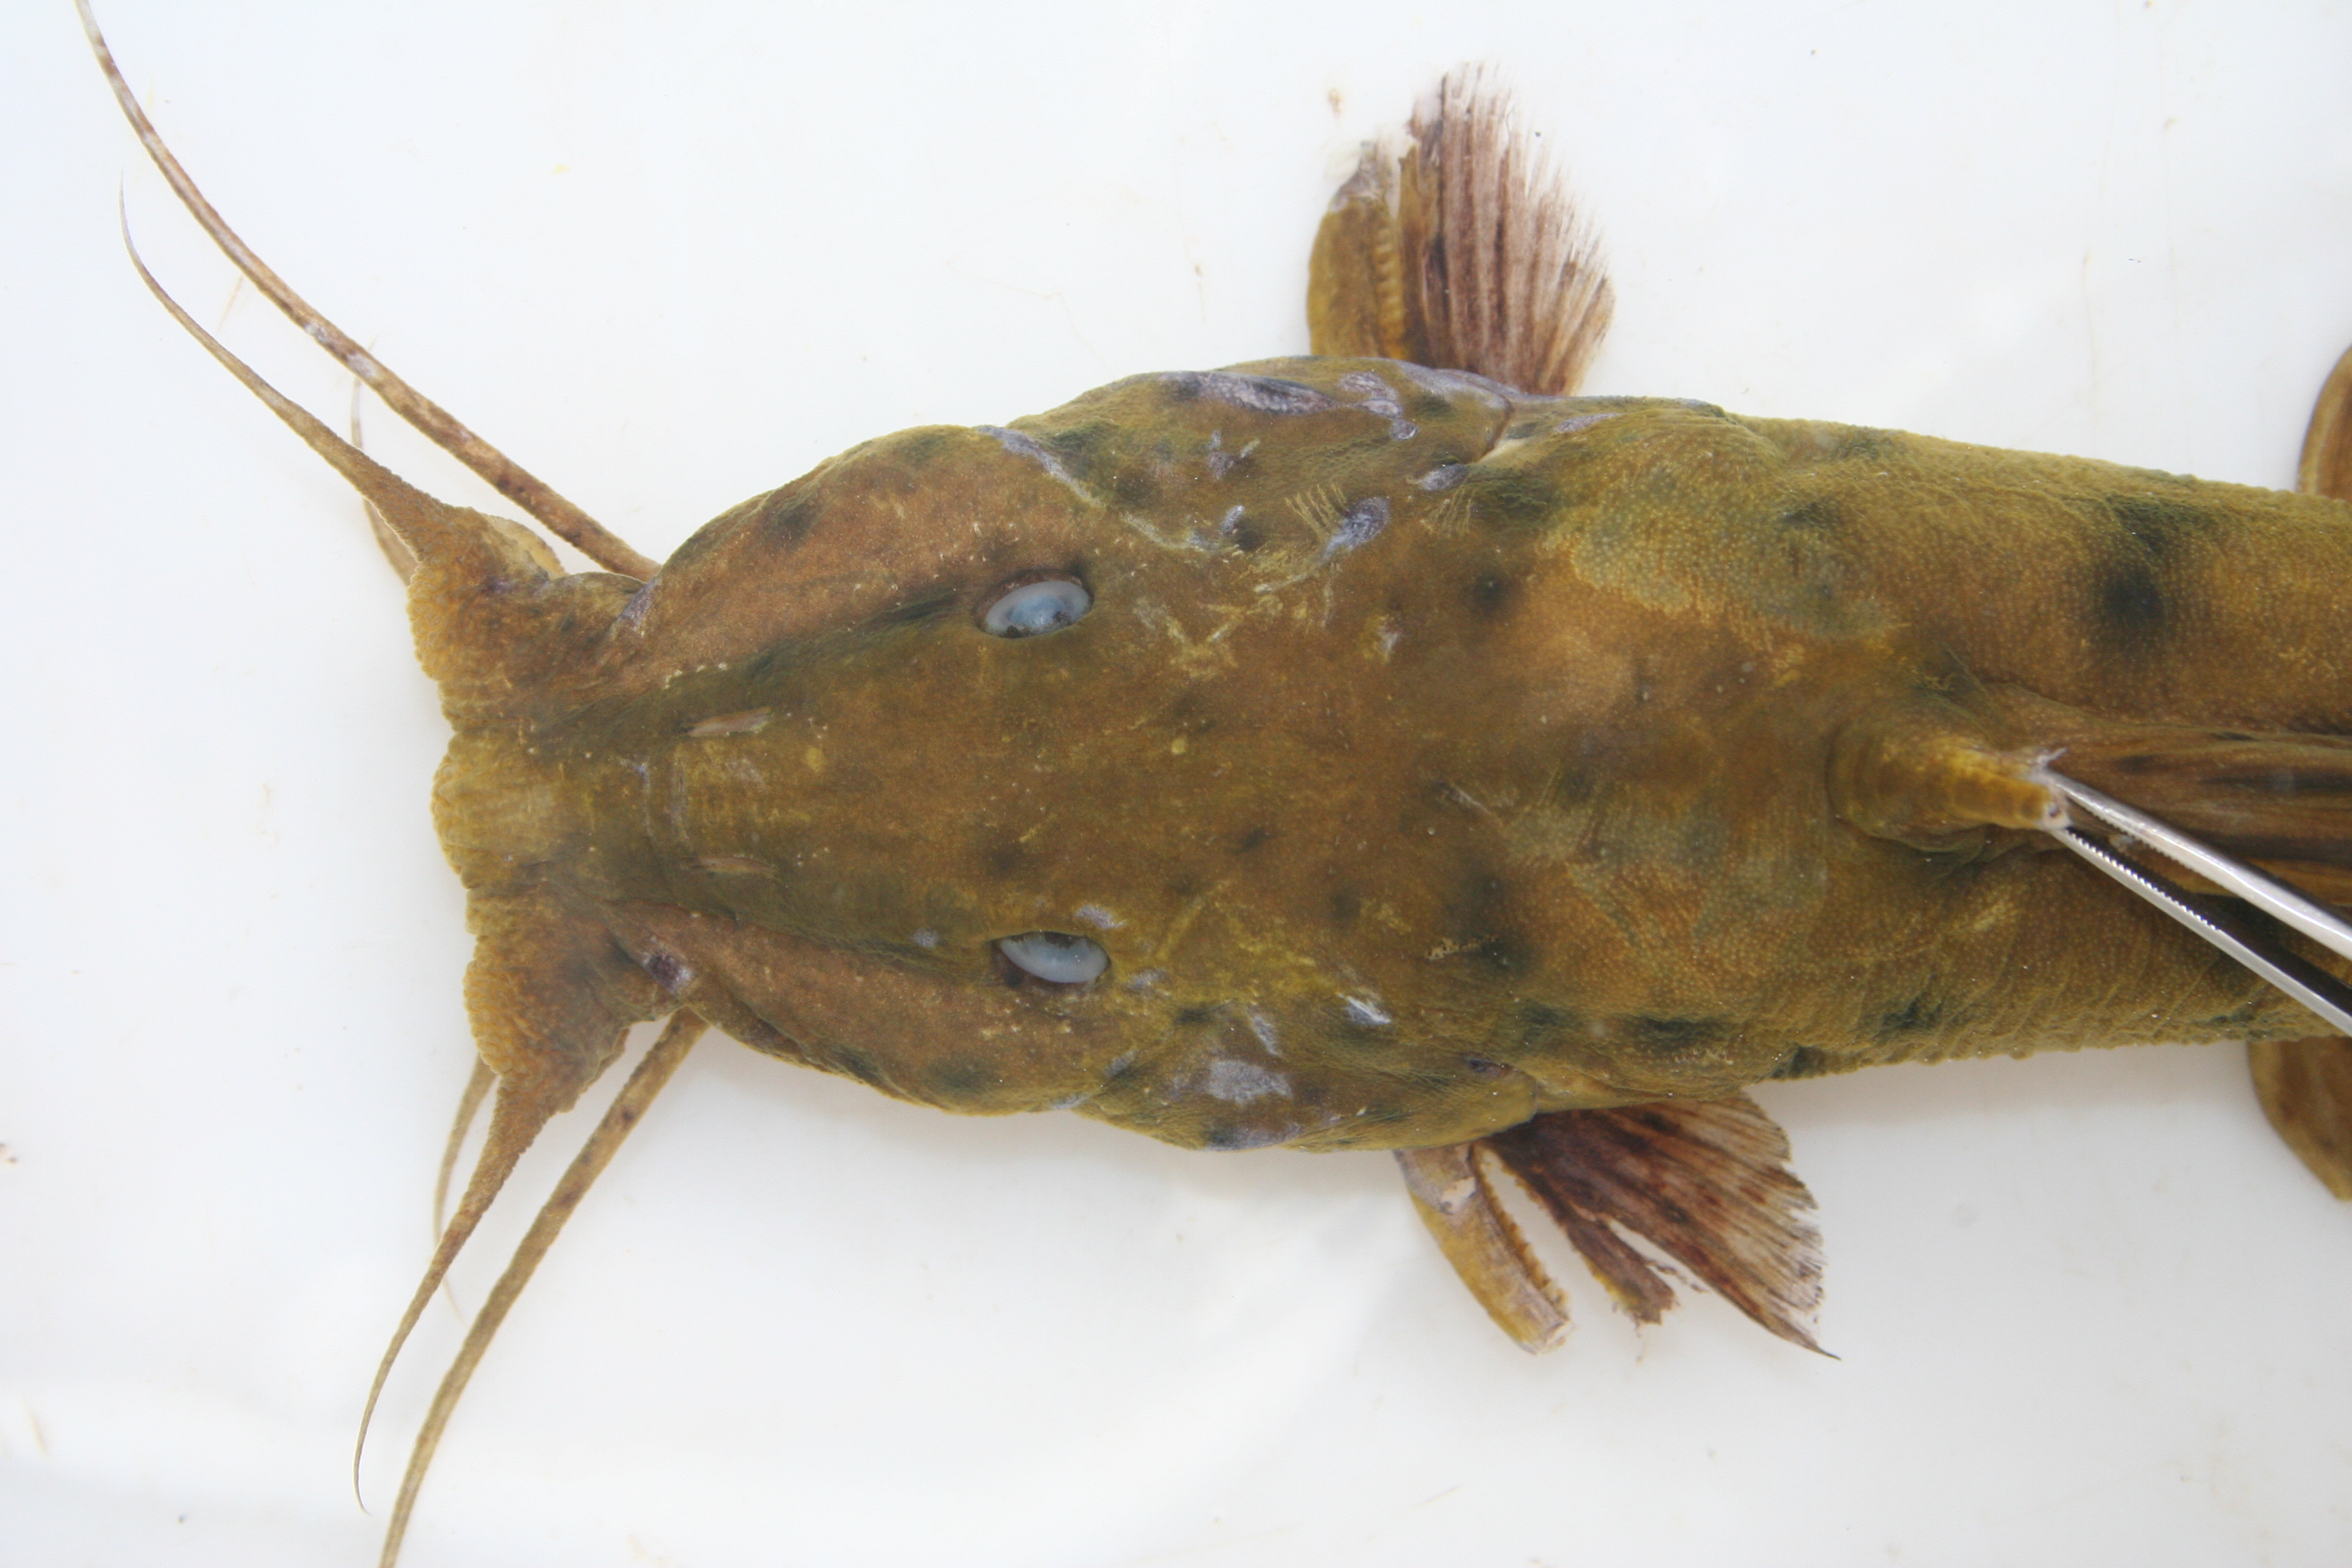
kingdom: Animalia
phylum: Chordata
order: Siluriformes
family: Claroteidae
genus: Parauchenoglanis
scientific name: Parauchenoglanis
